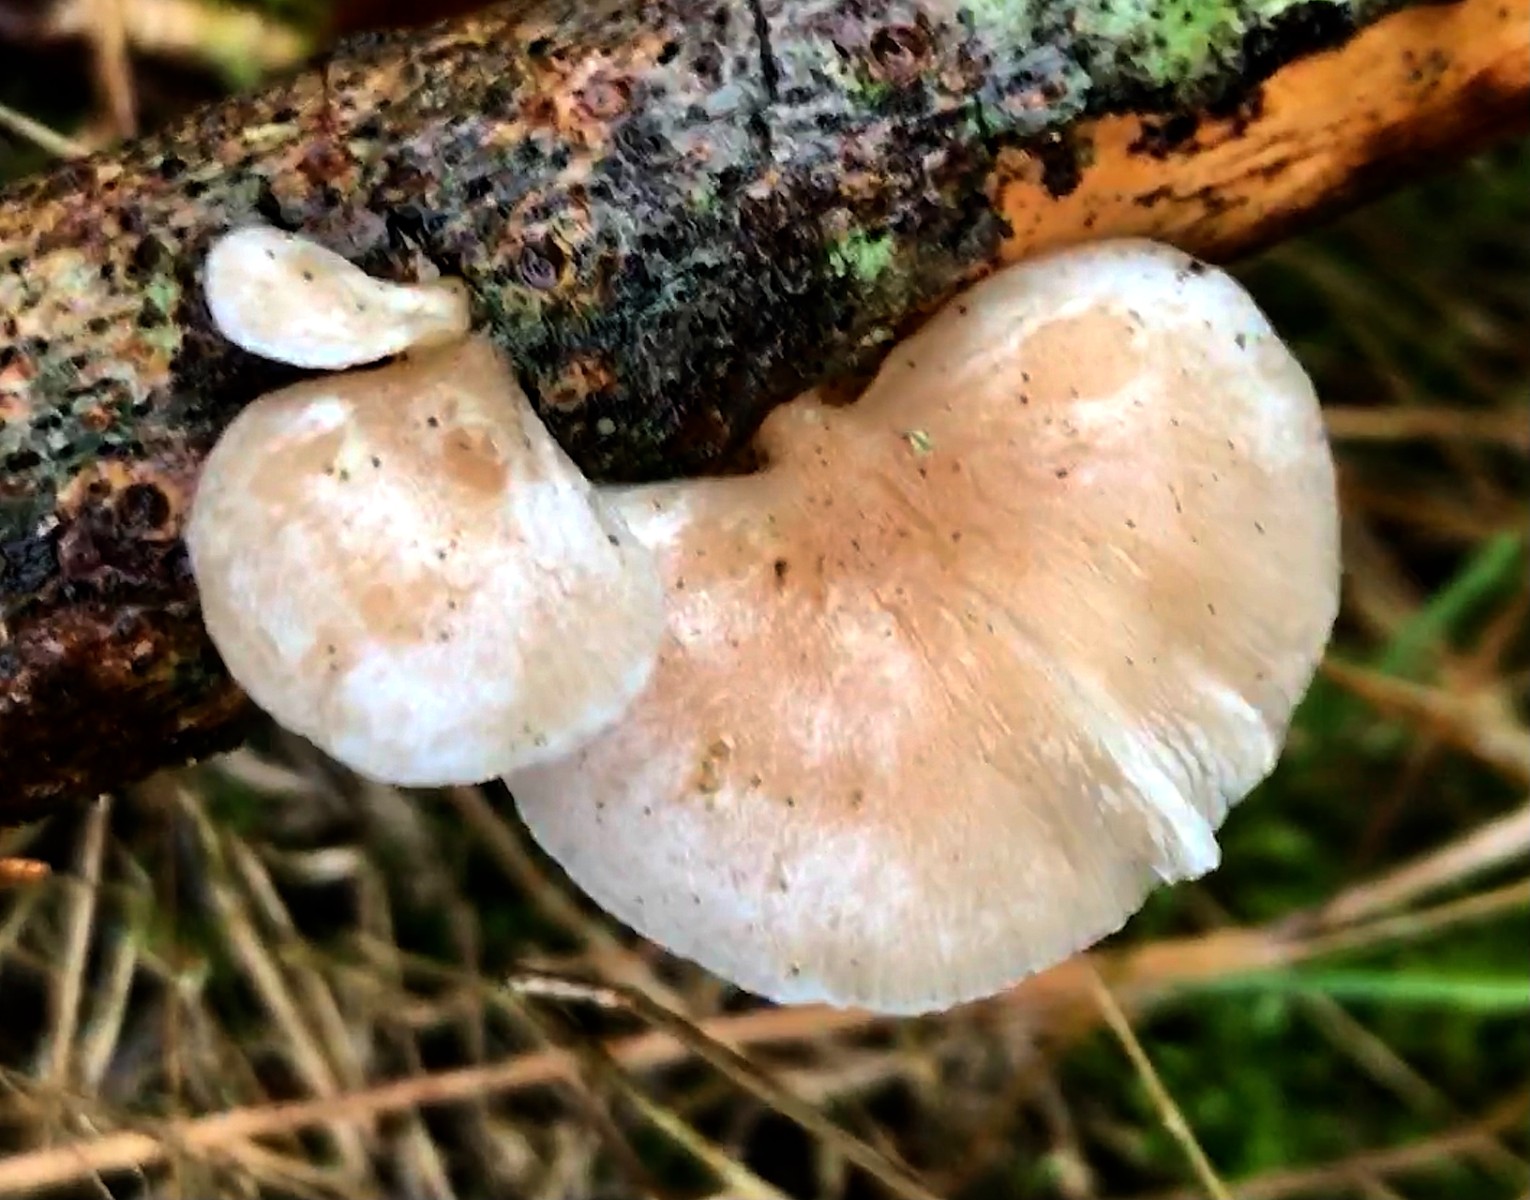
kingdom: Fungi
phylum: Basidiomycota
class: Agaricomycetes
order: Agaricales
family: Crepidotaceae
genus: Crepidotus
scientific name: Crepidotus mollis
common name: blød muslingesvamp
